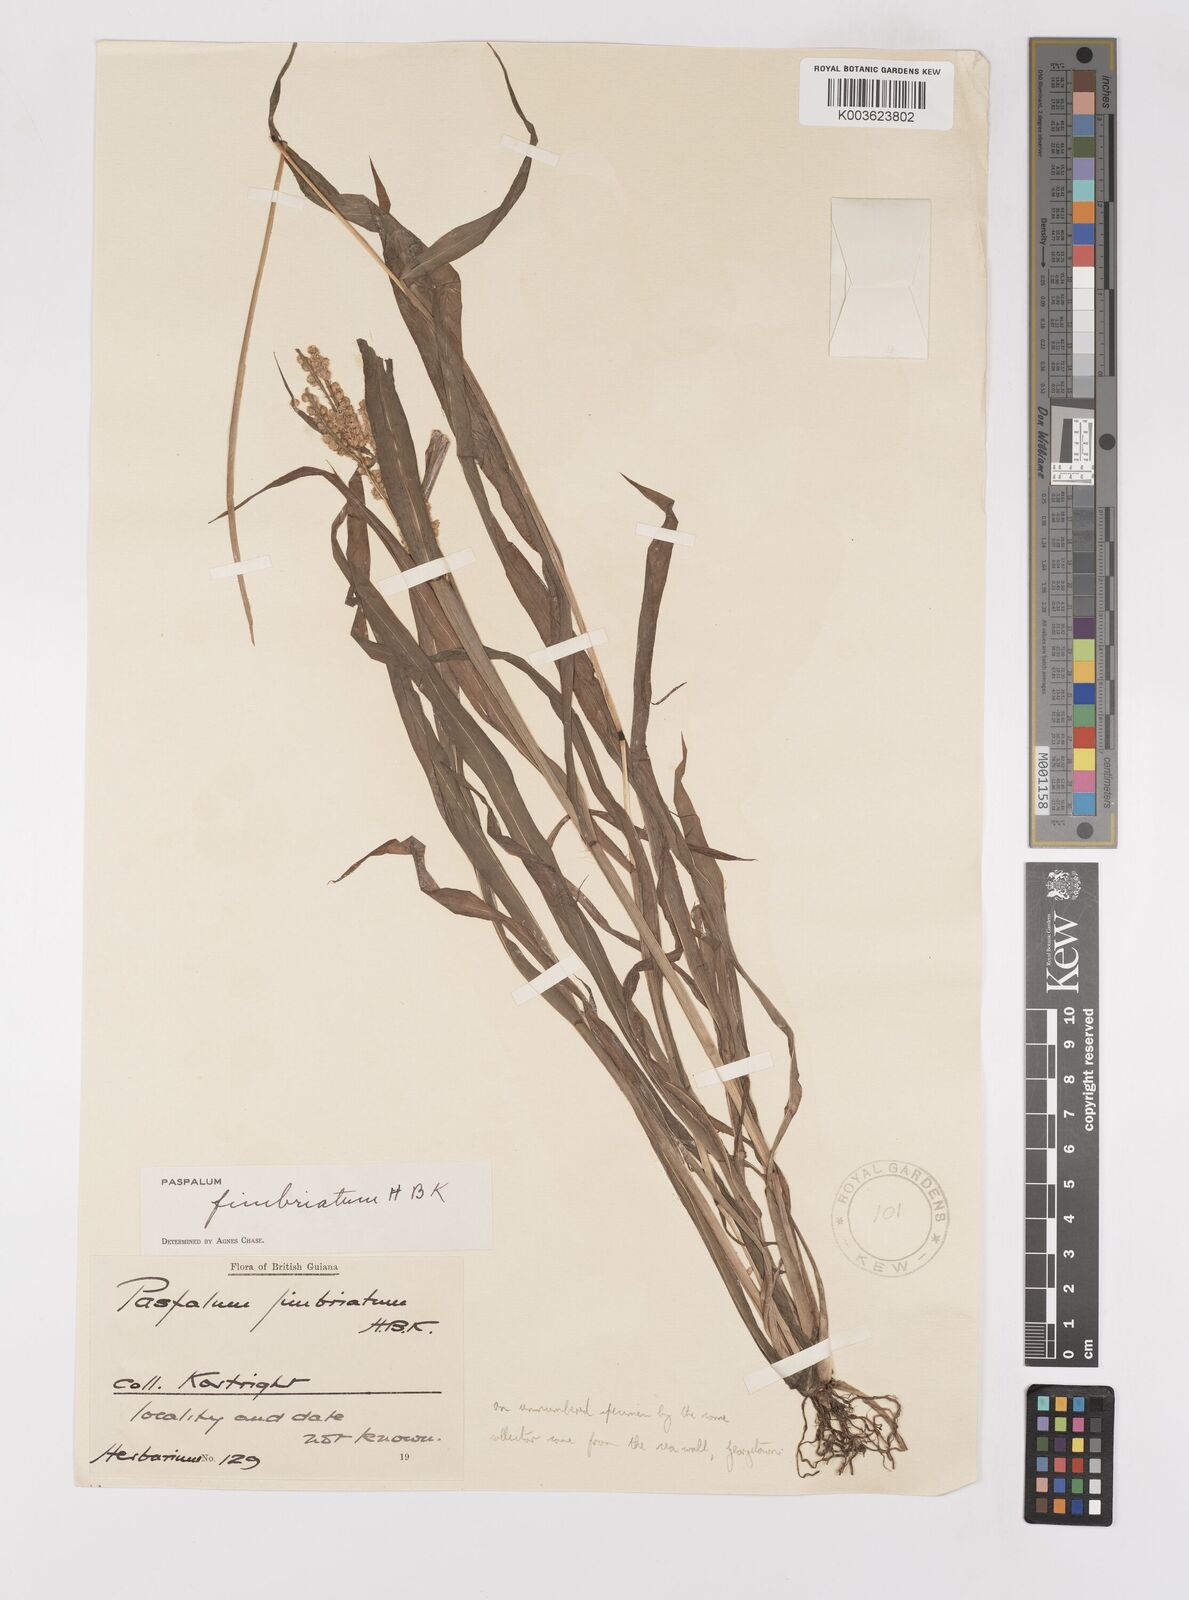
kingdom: Plantae
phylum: Tracheophyta
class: Liliopsida
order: Poales
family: Poaceae
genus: Paspalum
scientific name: Paspalum fimbriatum
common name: Panama crowngrass
